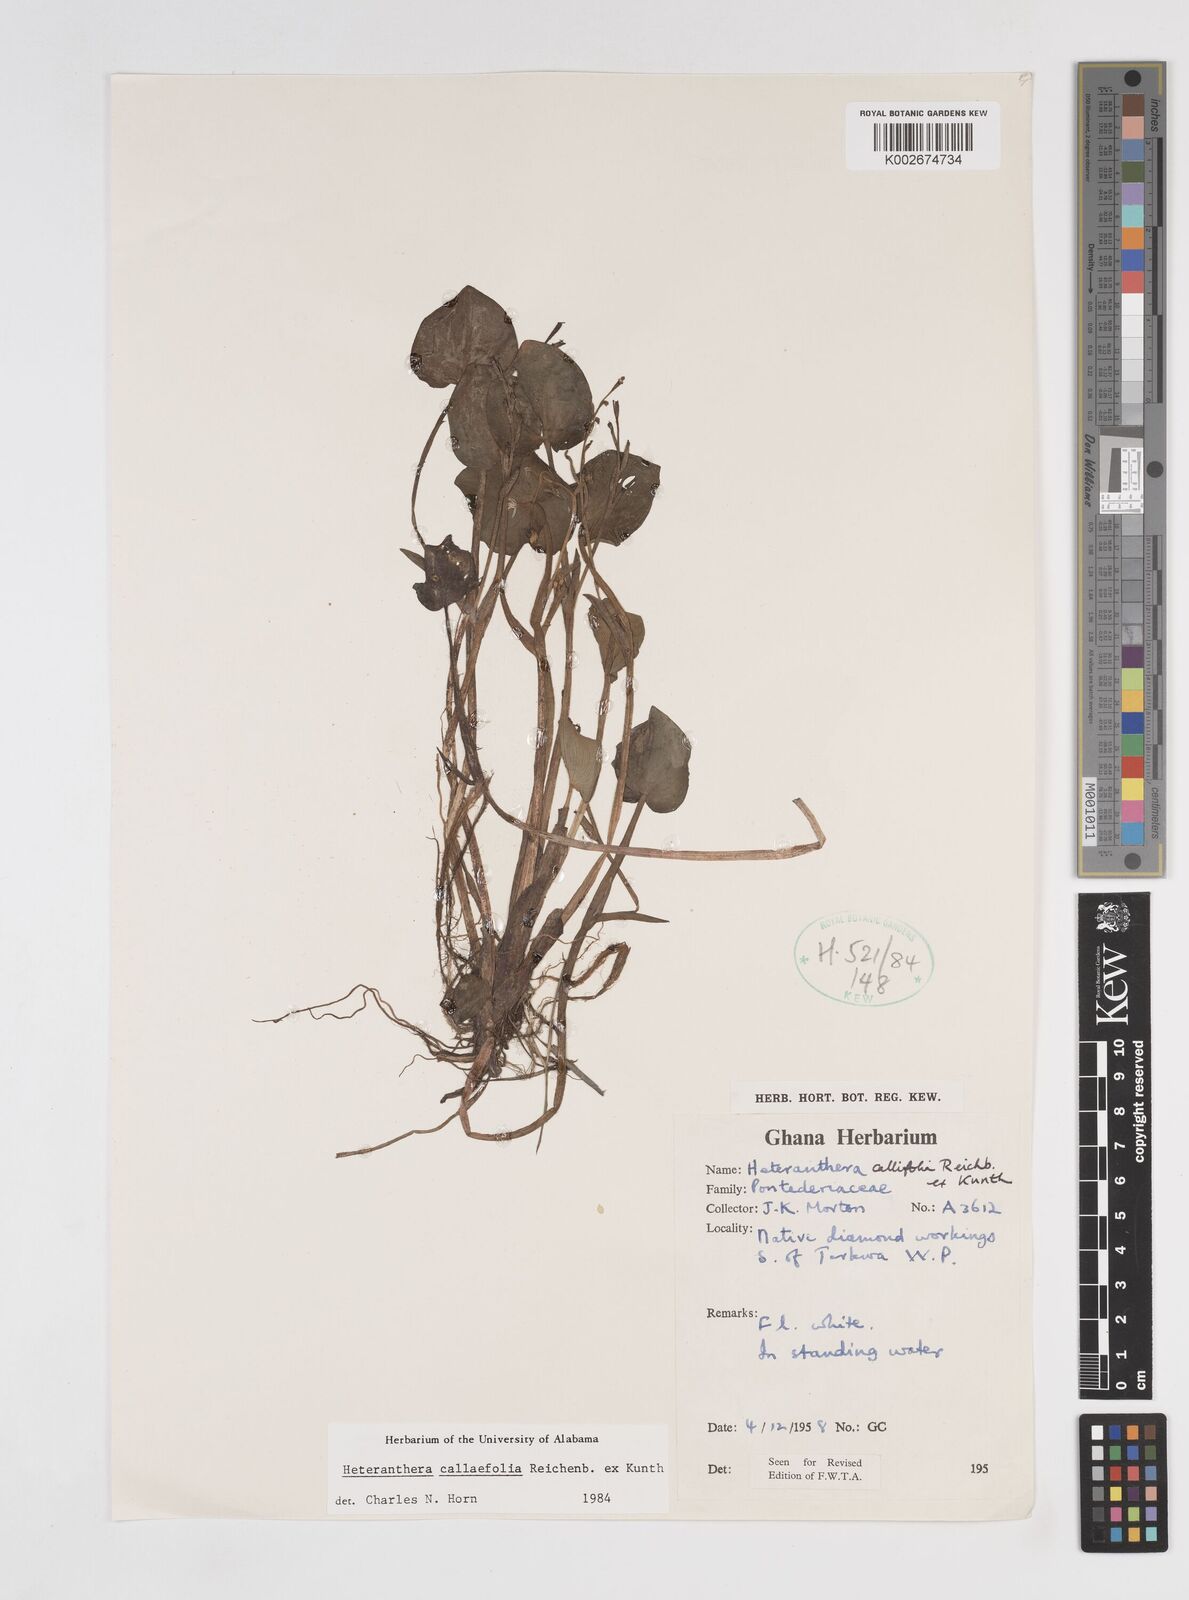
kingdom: Plantae
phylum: Tracheophyta
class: Liliopsida
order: Commelinales
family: Pontederiaceae
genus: Heteranthera
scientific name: Heteranthera callifolia
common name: Mud plantain
